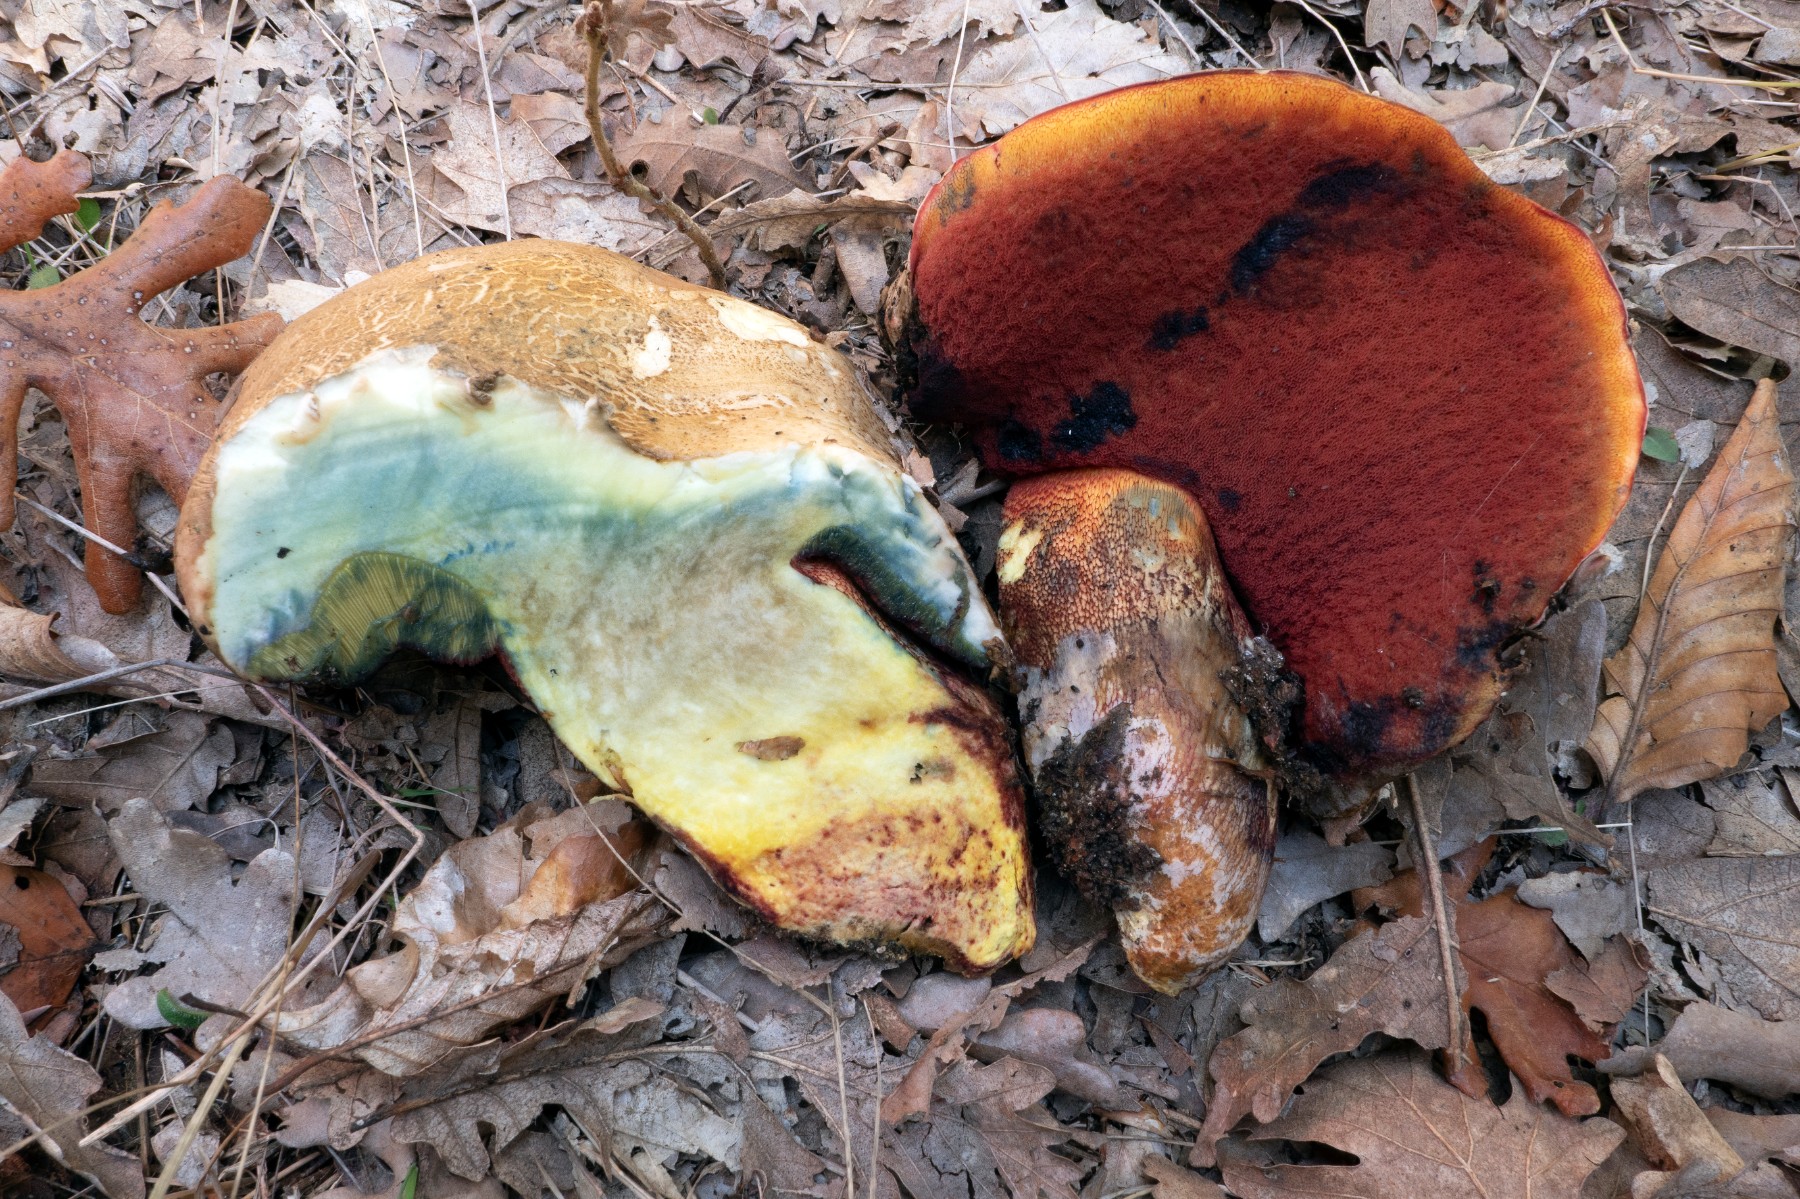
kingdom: Fungi
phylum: Basidiomycota
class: Agaricomycetes
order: Boletales
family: Boletaceae
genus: Rubroboletus
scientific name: Rubroboletus rhodoxanthus
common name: rødgul rørhat
